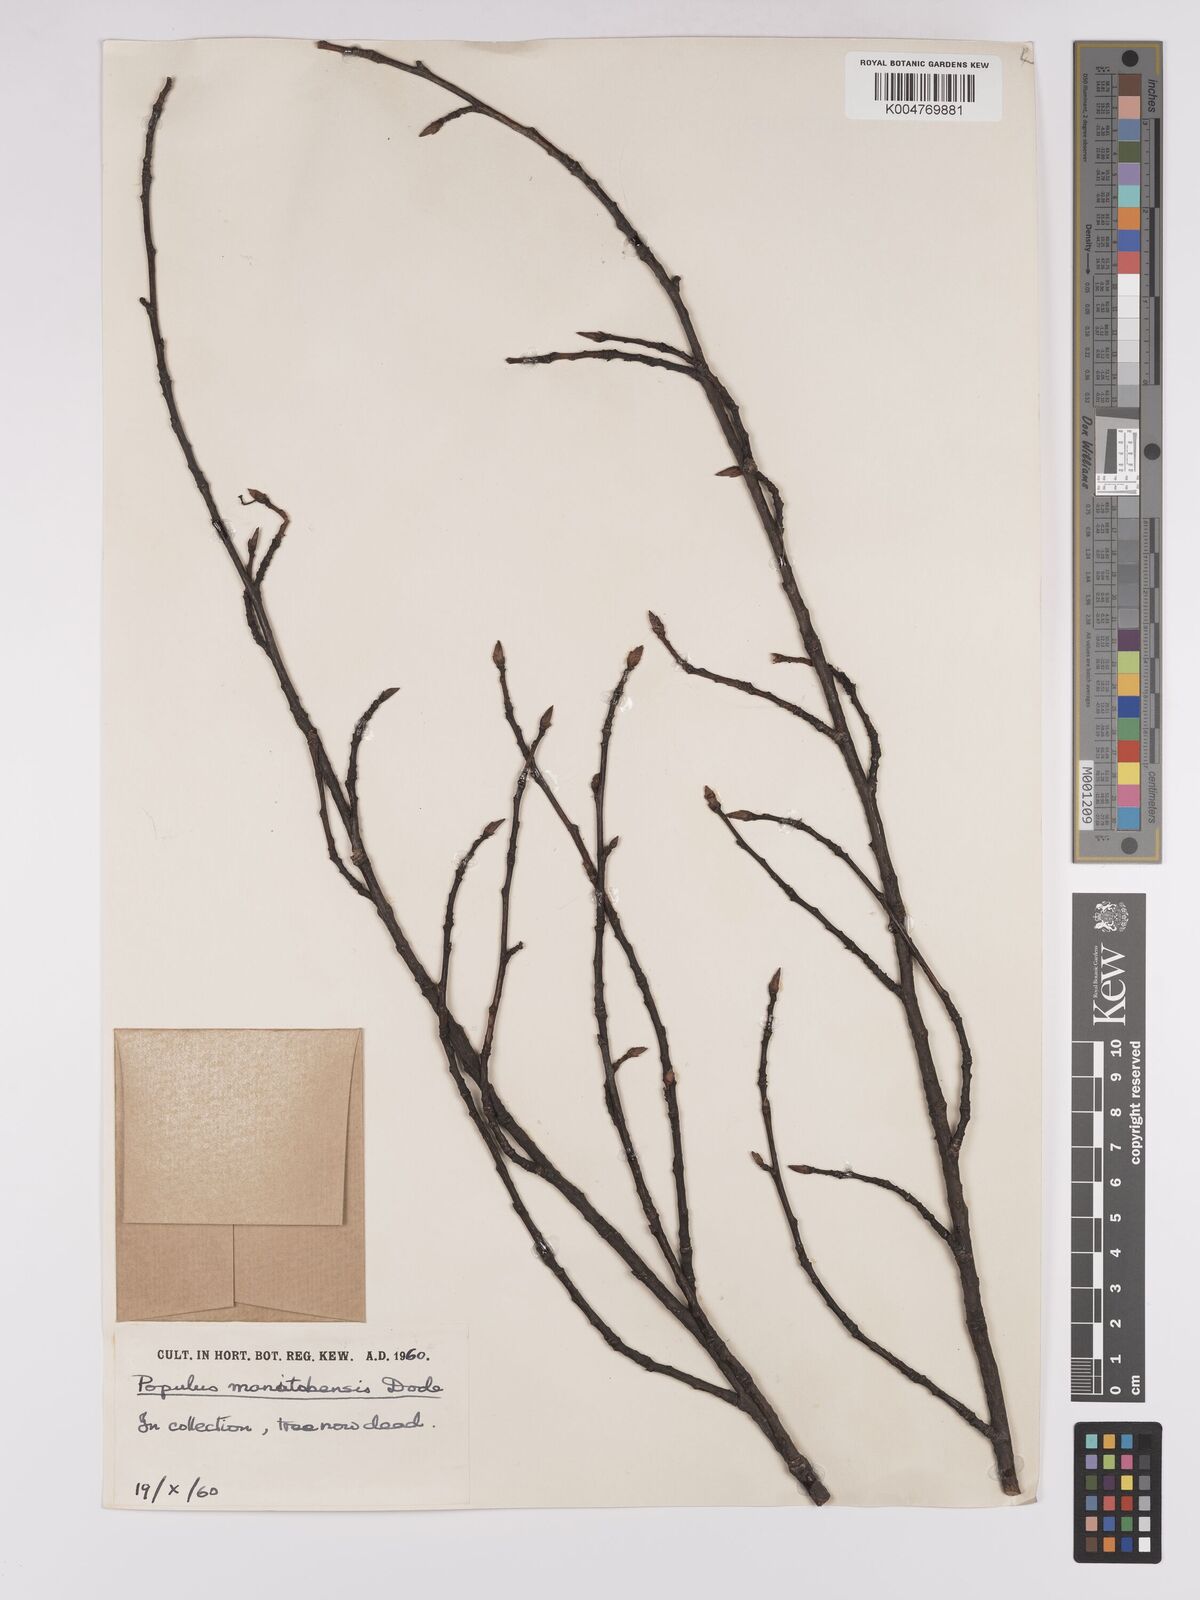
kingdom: Plantae
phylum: Tracheophyta
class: Magnoliopsida
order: Malpighiales
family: Salicaceae
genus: Populus
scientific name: Populus jackii
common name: Balm-of-gilead
